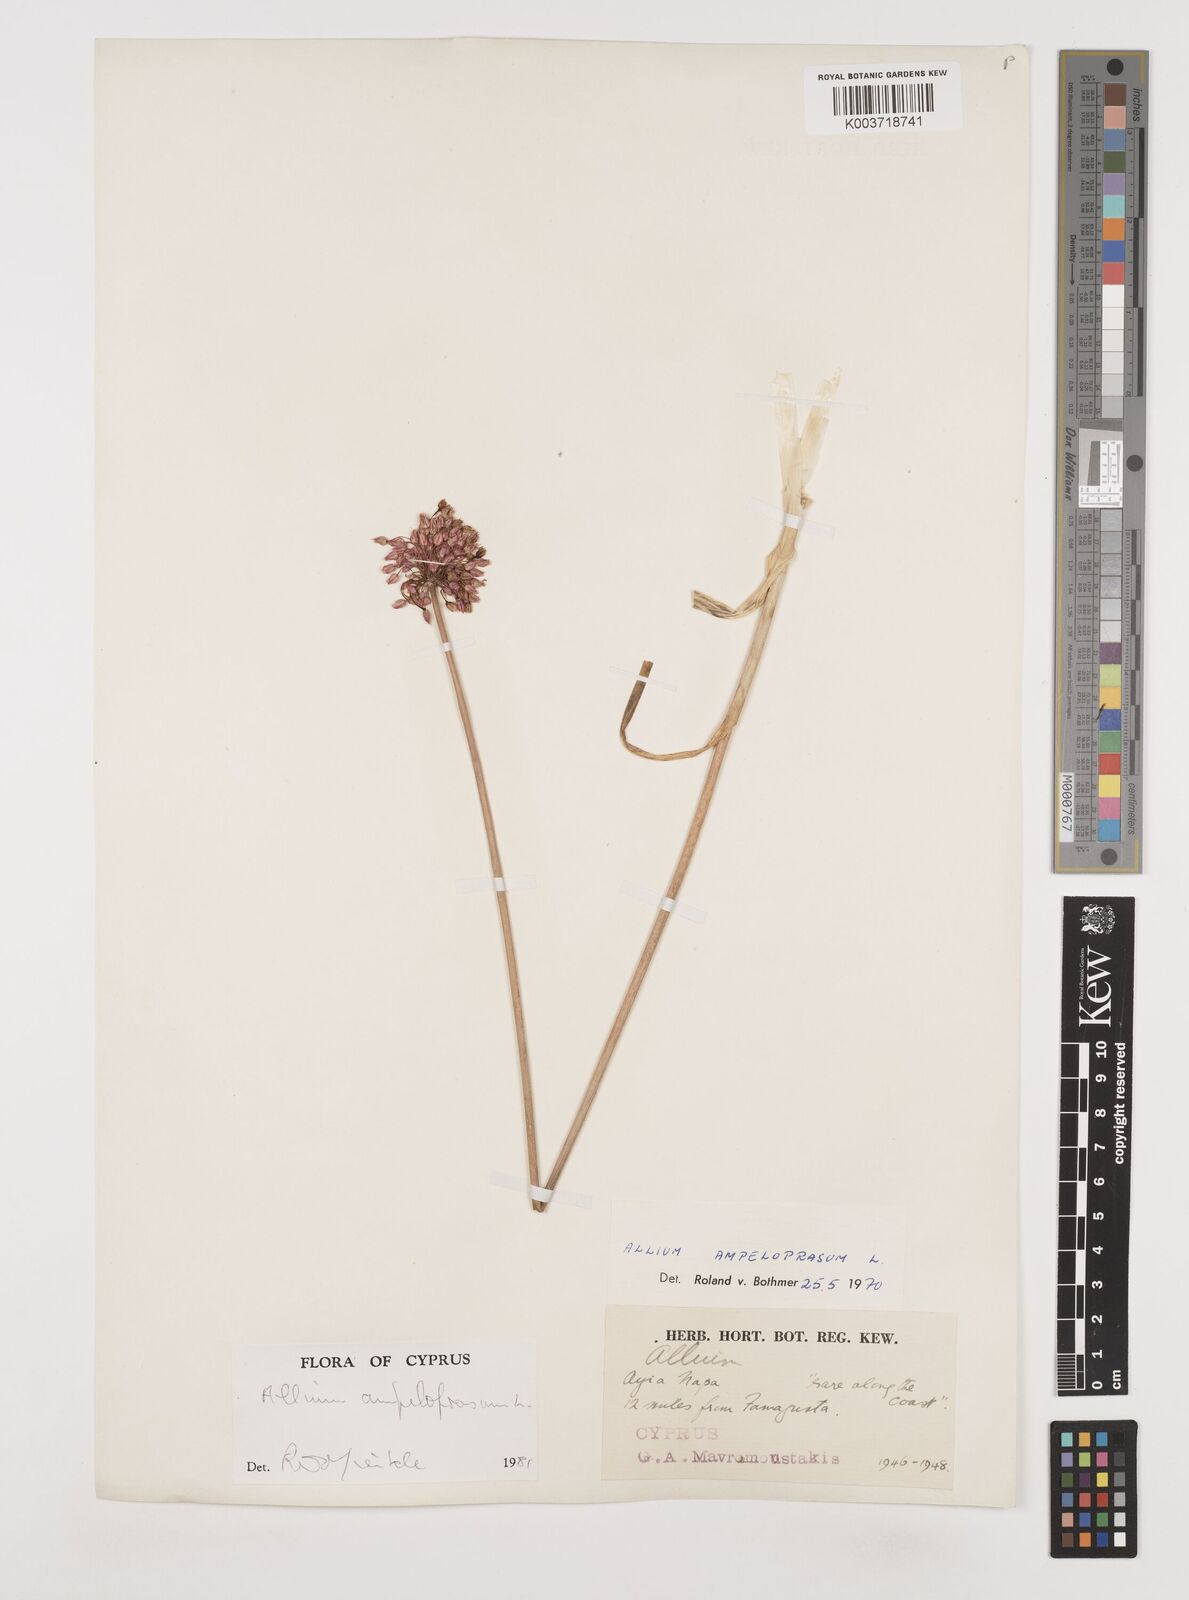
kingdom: Plantae
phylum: Tracheophyta
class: Liliopsida
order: Asparagales
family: Amaryllidaceae
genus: Allium
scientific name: Allium rotundum
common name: Sand leek
